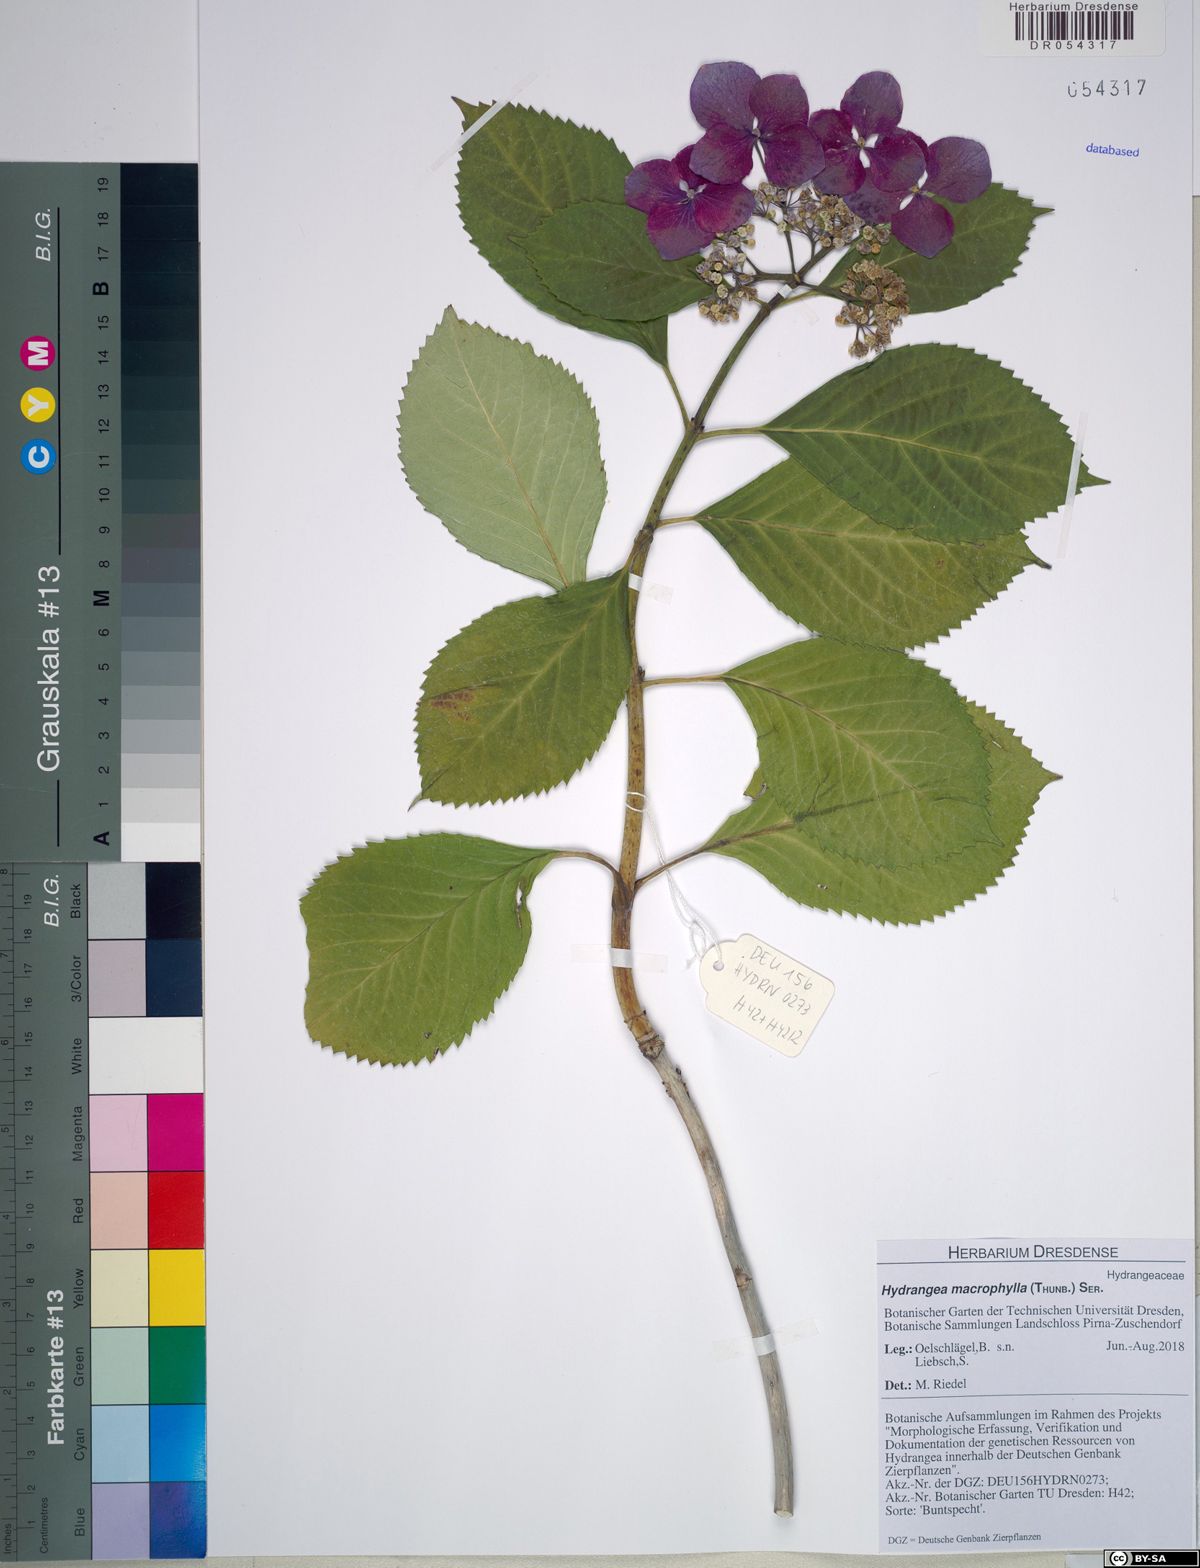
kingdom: Plantae
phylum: Tracheophyta
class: Magnoliopsida
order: Cornales
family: Hydrangeaceae
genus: Hydrangea
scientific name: Hydrangea macrophylla
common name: Hydrangea
